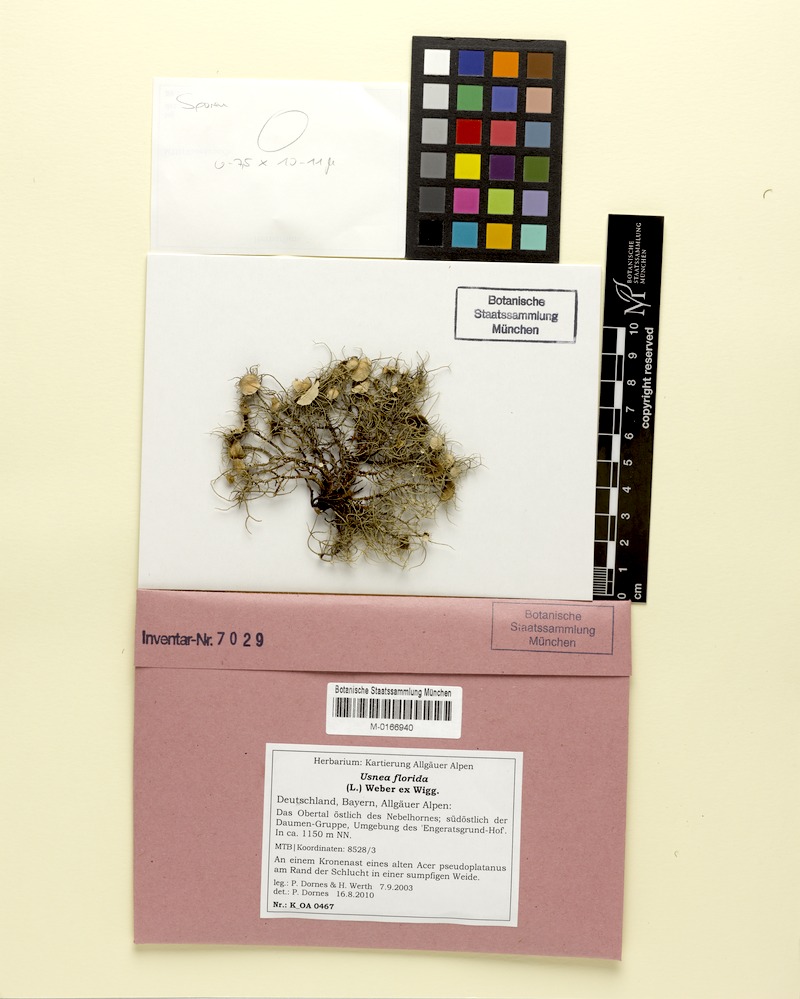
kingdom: Fungi
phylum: Ascomycota
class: Lecanoromycetes
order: Lecanorales
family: Parmeliaceae
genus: Usnea
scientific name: Usnea florida
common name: Witches' whiskers lichen
